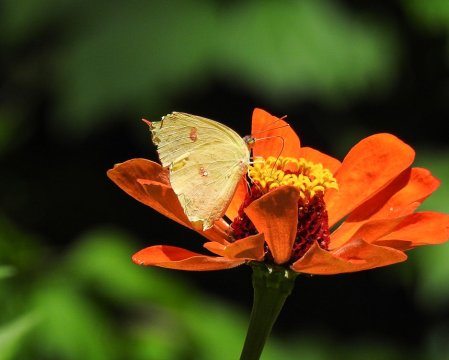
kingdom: Animalia
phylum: Arthropoda
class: Insecta
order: Lepidoptera
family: Pieridae
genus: Phoebis
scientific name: Phoebis sennae
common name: Cloudless Sulphur
